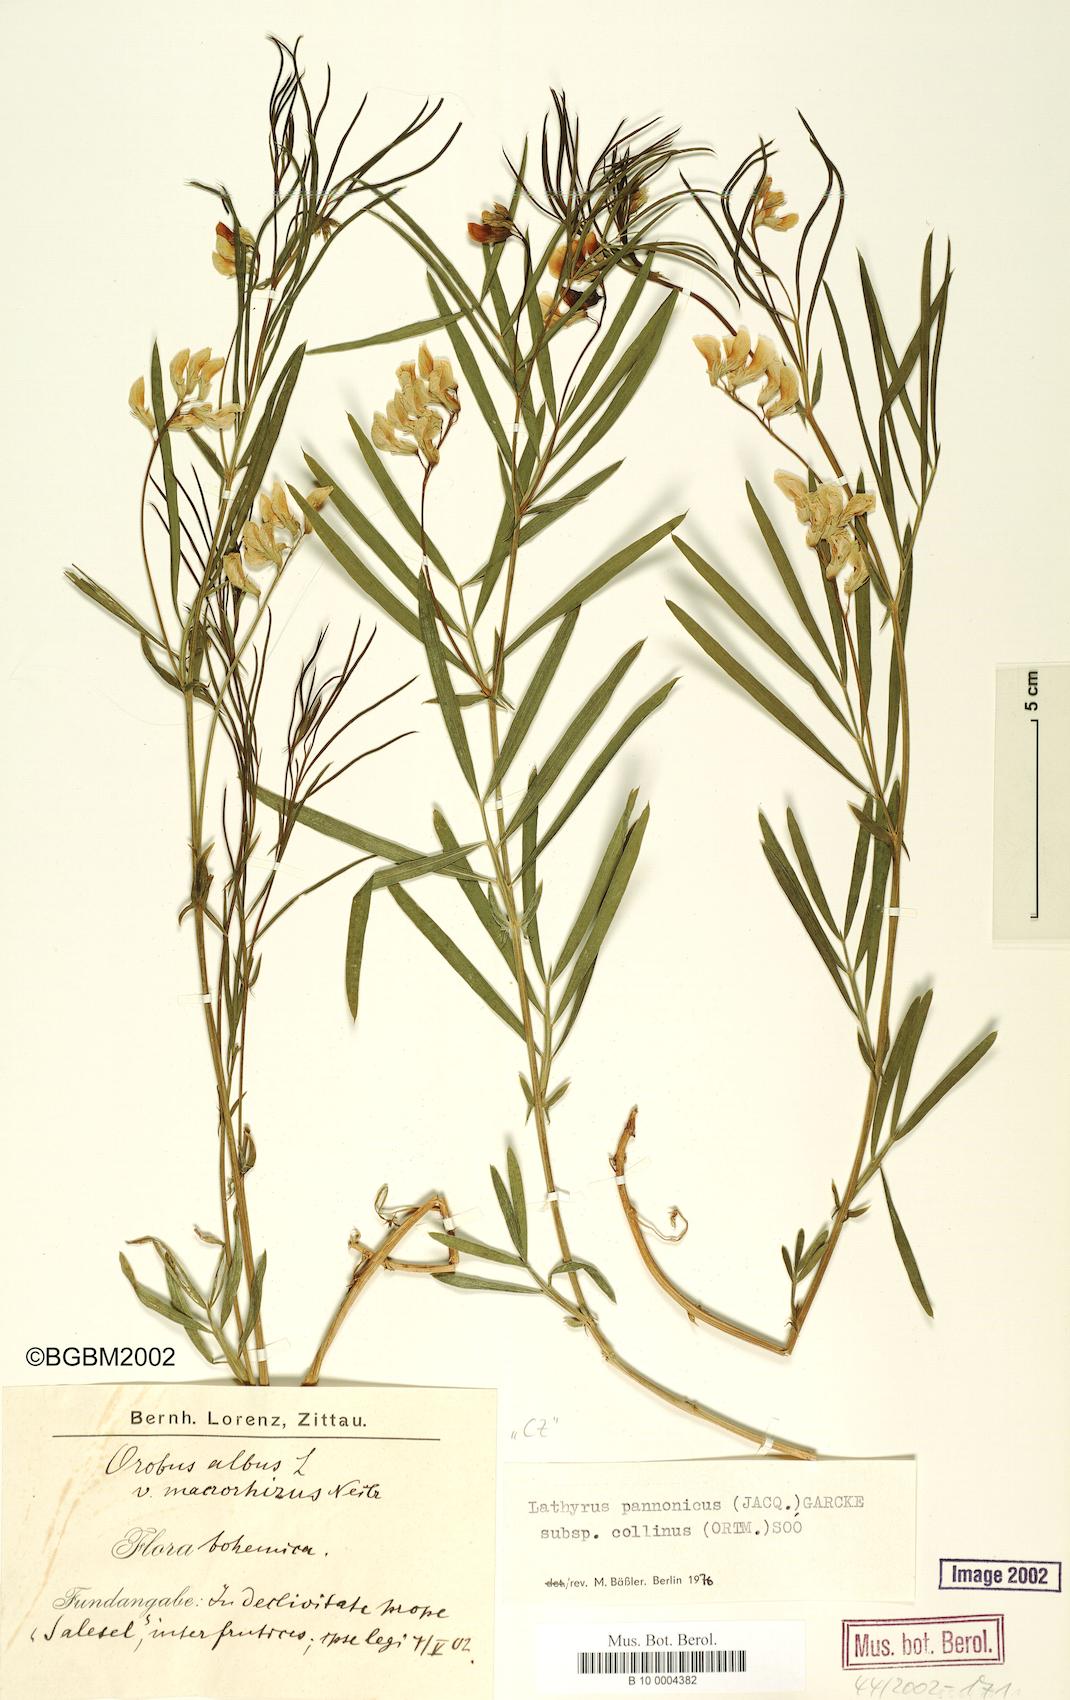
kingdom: Plantae
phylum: Tracheophyta
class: Magnoliopsida
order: Fabales
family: Fabaceae
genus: Lathyrus
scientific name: Lathyrus pannonicus
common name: Pea
